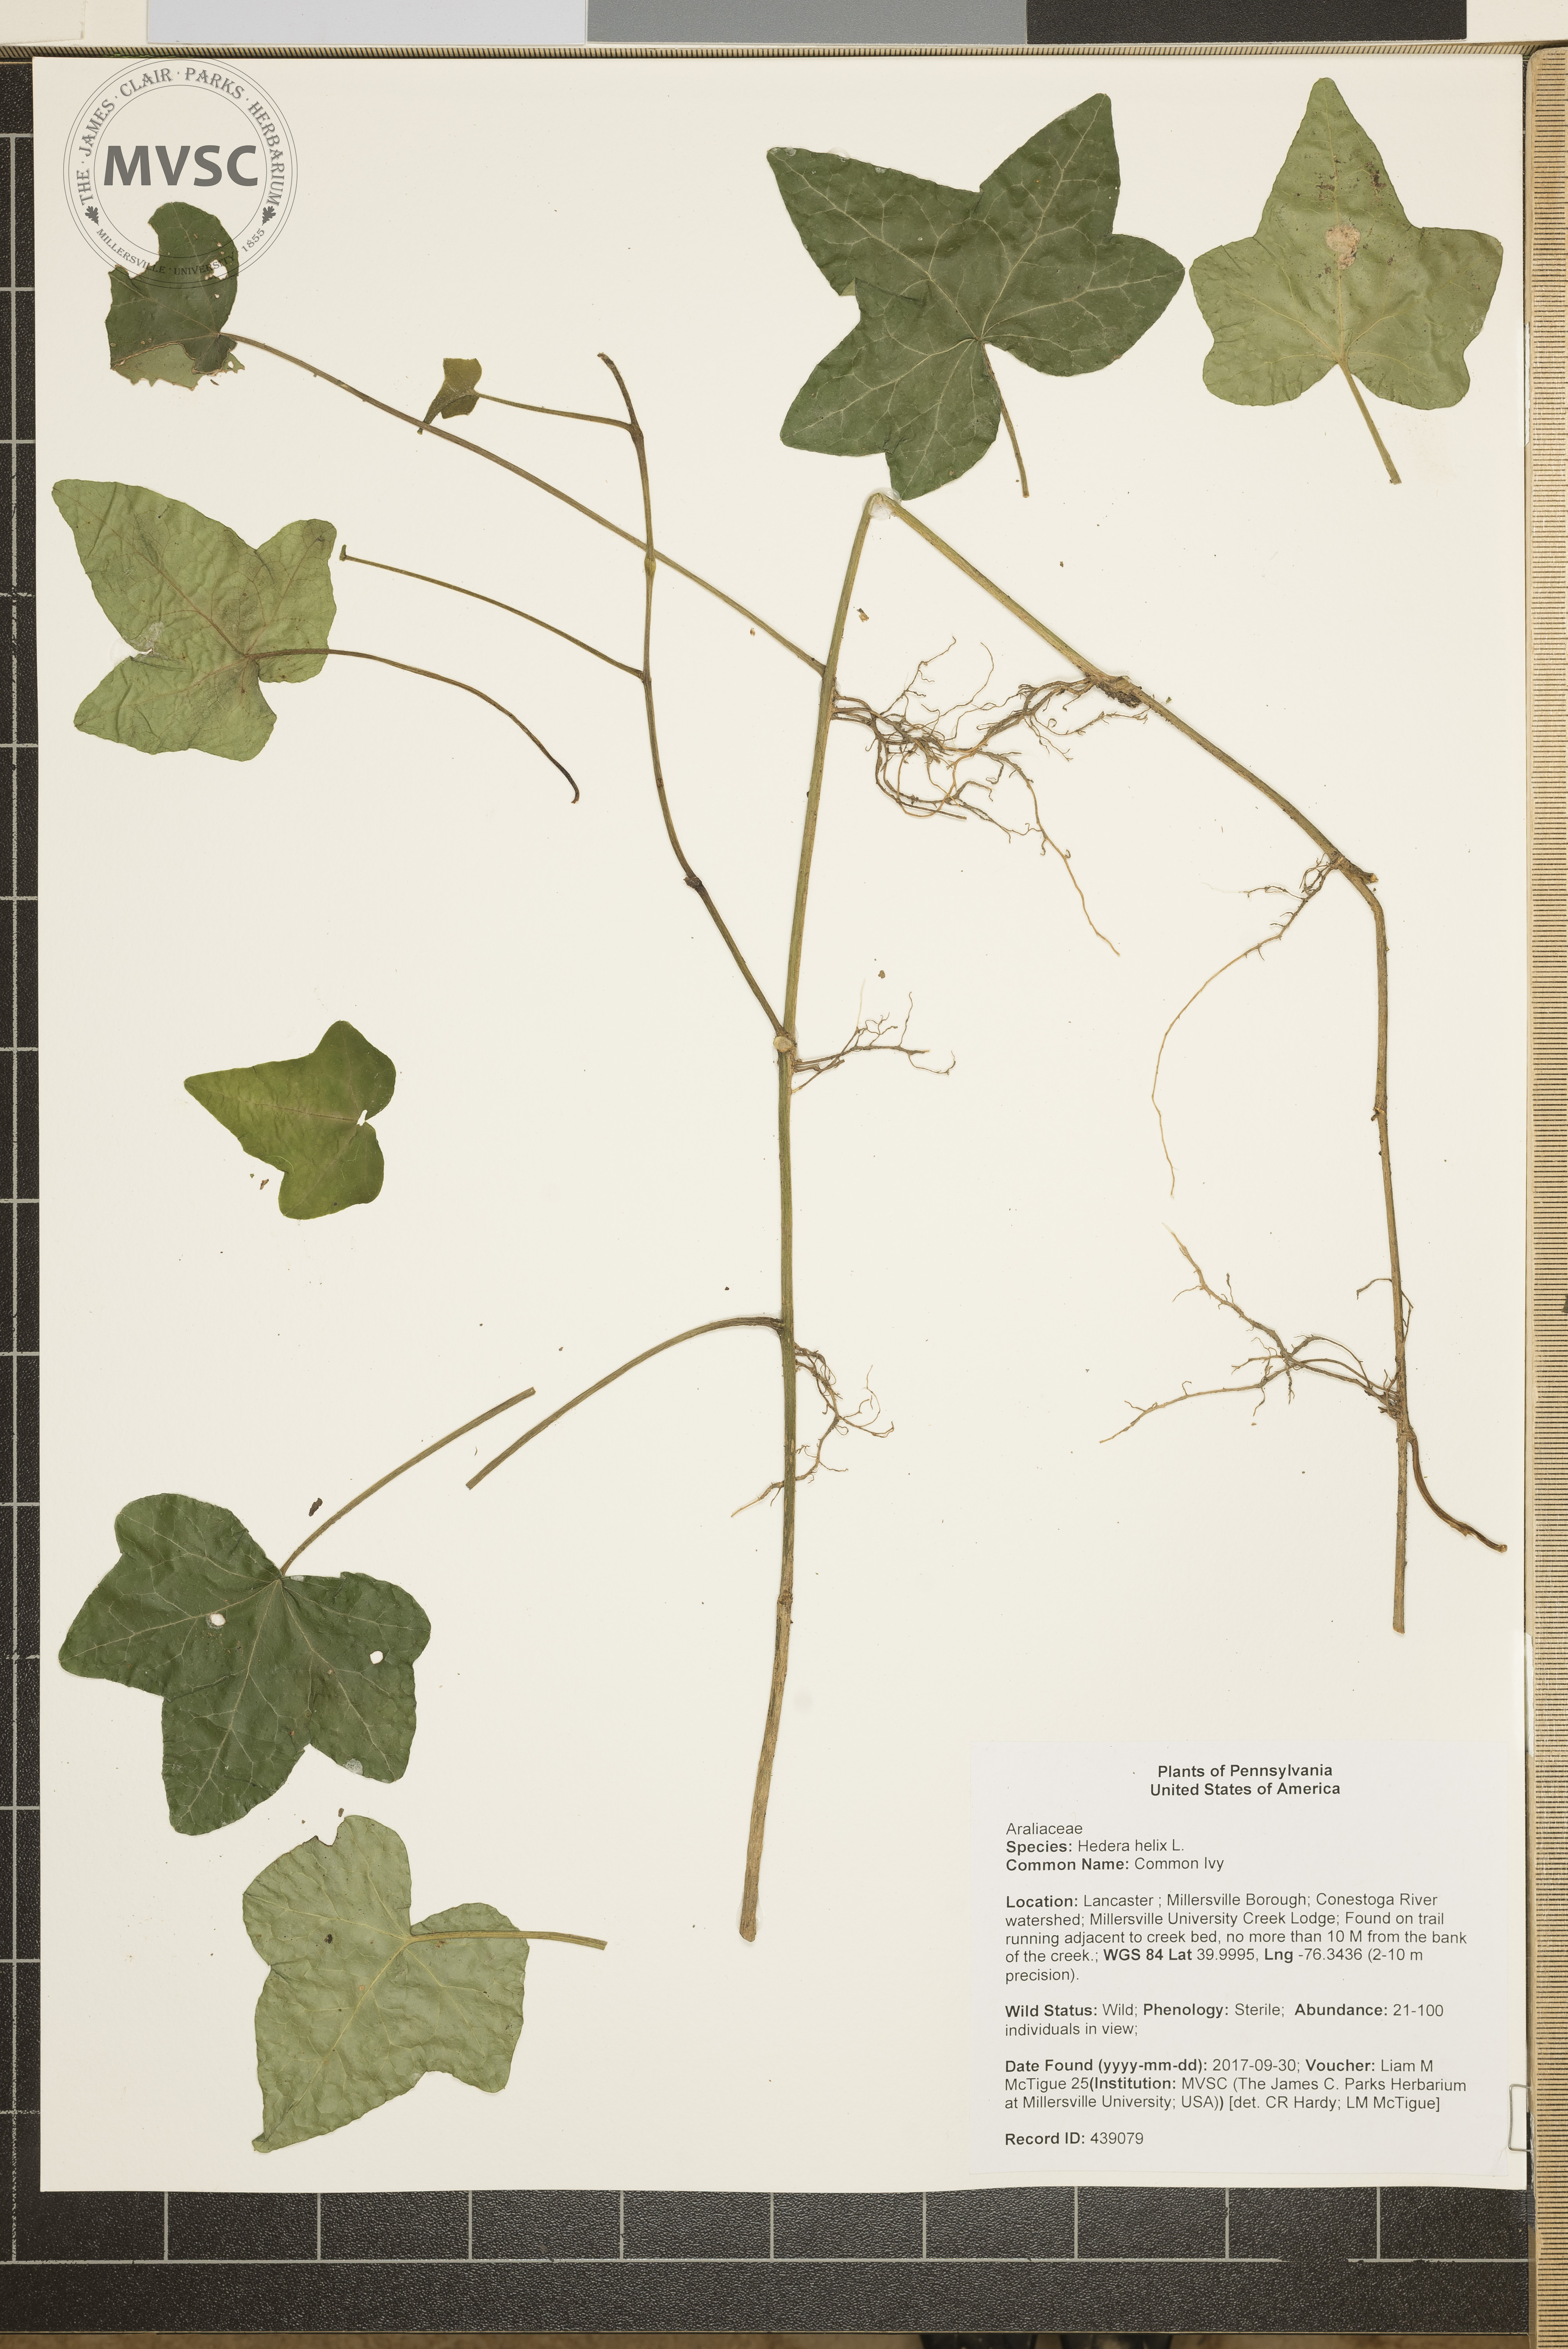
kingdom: Plantae
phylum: Tracheophyta
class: Magnoliopsida
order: Apiales
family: Araliaceae
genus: Hedera
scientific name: Hedera helix
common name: Common Ivy
